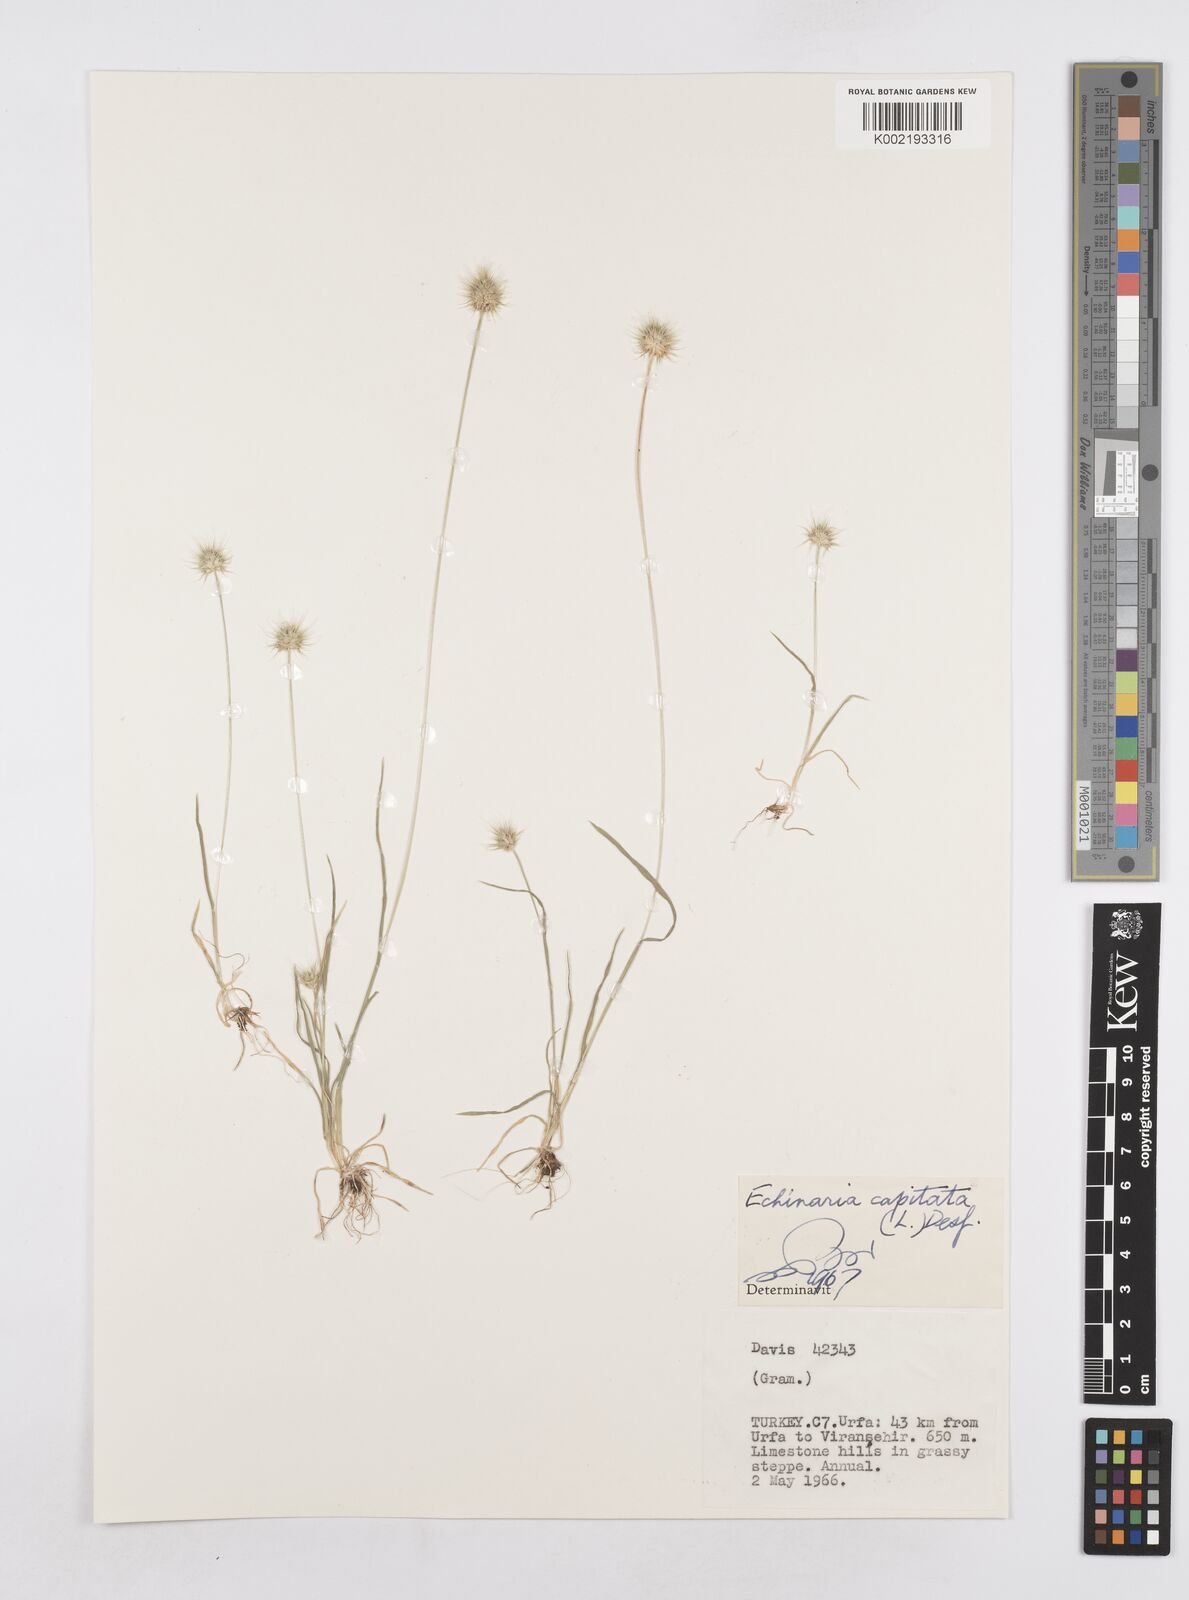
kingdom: Plantae
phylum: Tracheophyta
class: Liliopsida
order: Poales
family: Poaceae
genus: Echinaria
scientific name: Echinaria capitata
